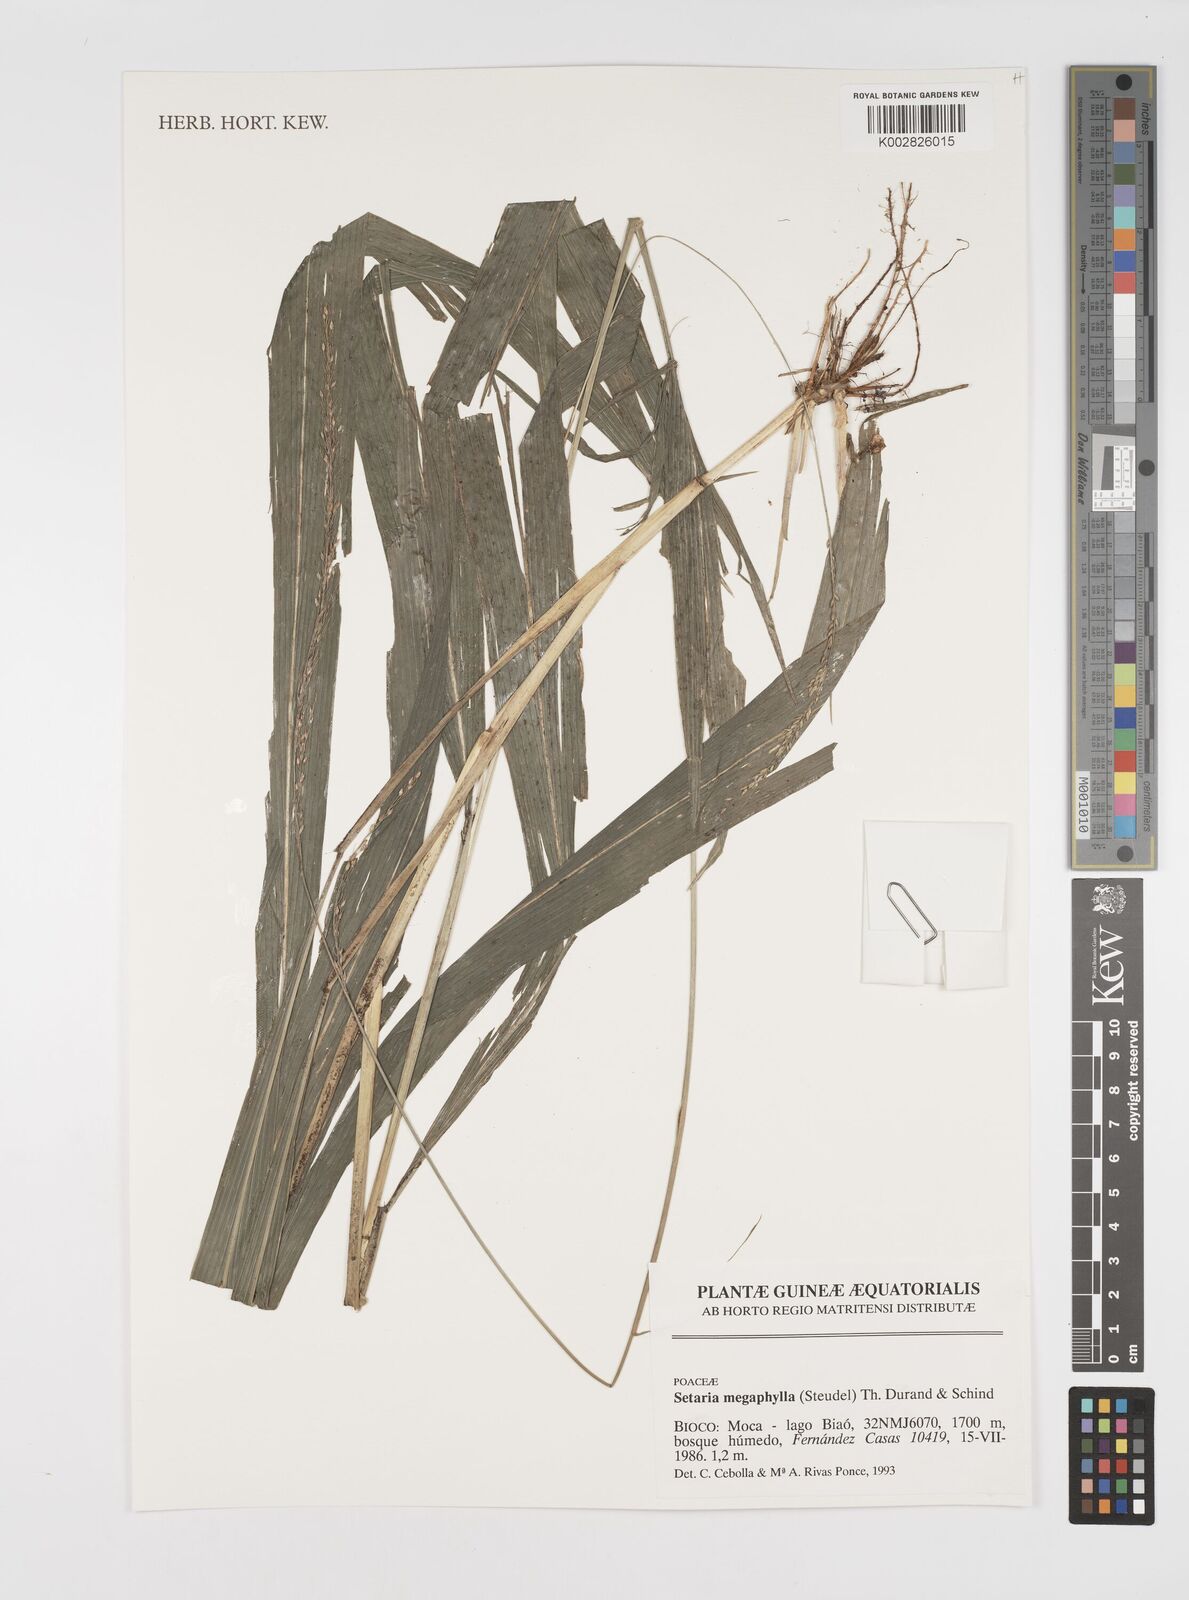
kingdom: Plantae
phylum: Tracheophyta
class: Liliopsida
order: Poales
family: Poaceae
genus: Setaria
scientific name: Setaria megaphylla
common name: Bigleaf bristlegrass
